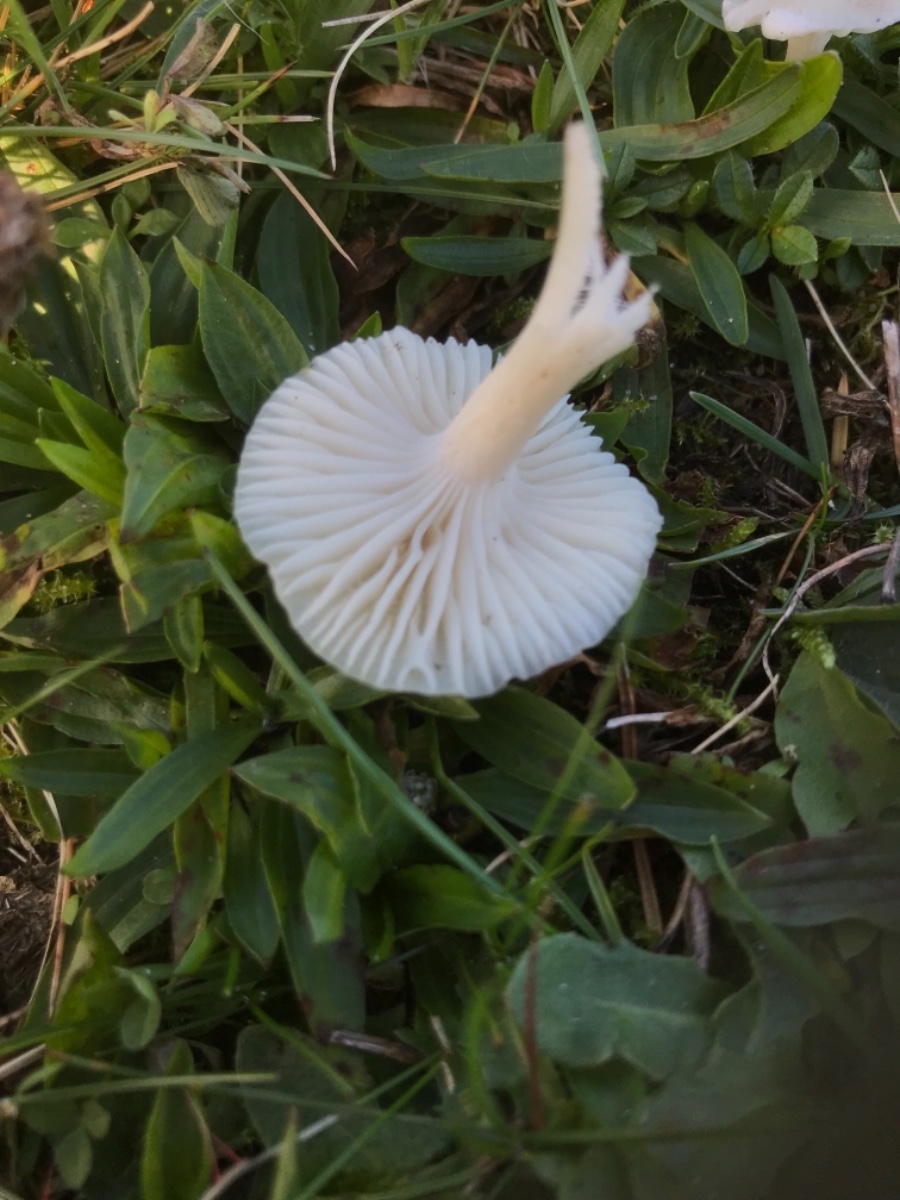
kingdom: Fungi
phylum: Basidiomycota
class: Agaricomycetes
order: Agaricales
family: Hygrophoraceae
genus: Cuphophyllus
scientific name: Cuphophyllus virgineus
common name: snehvid vokshat
